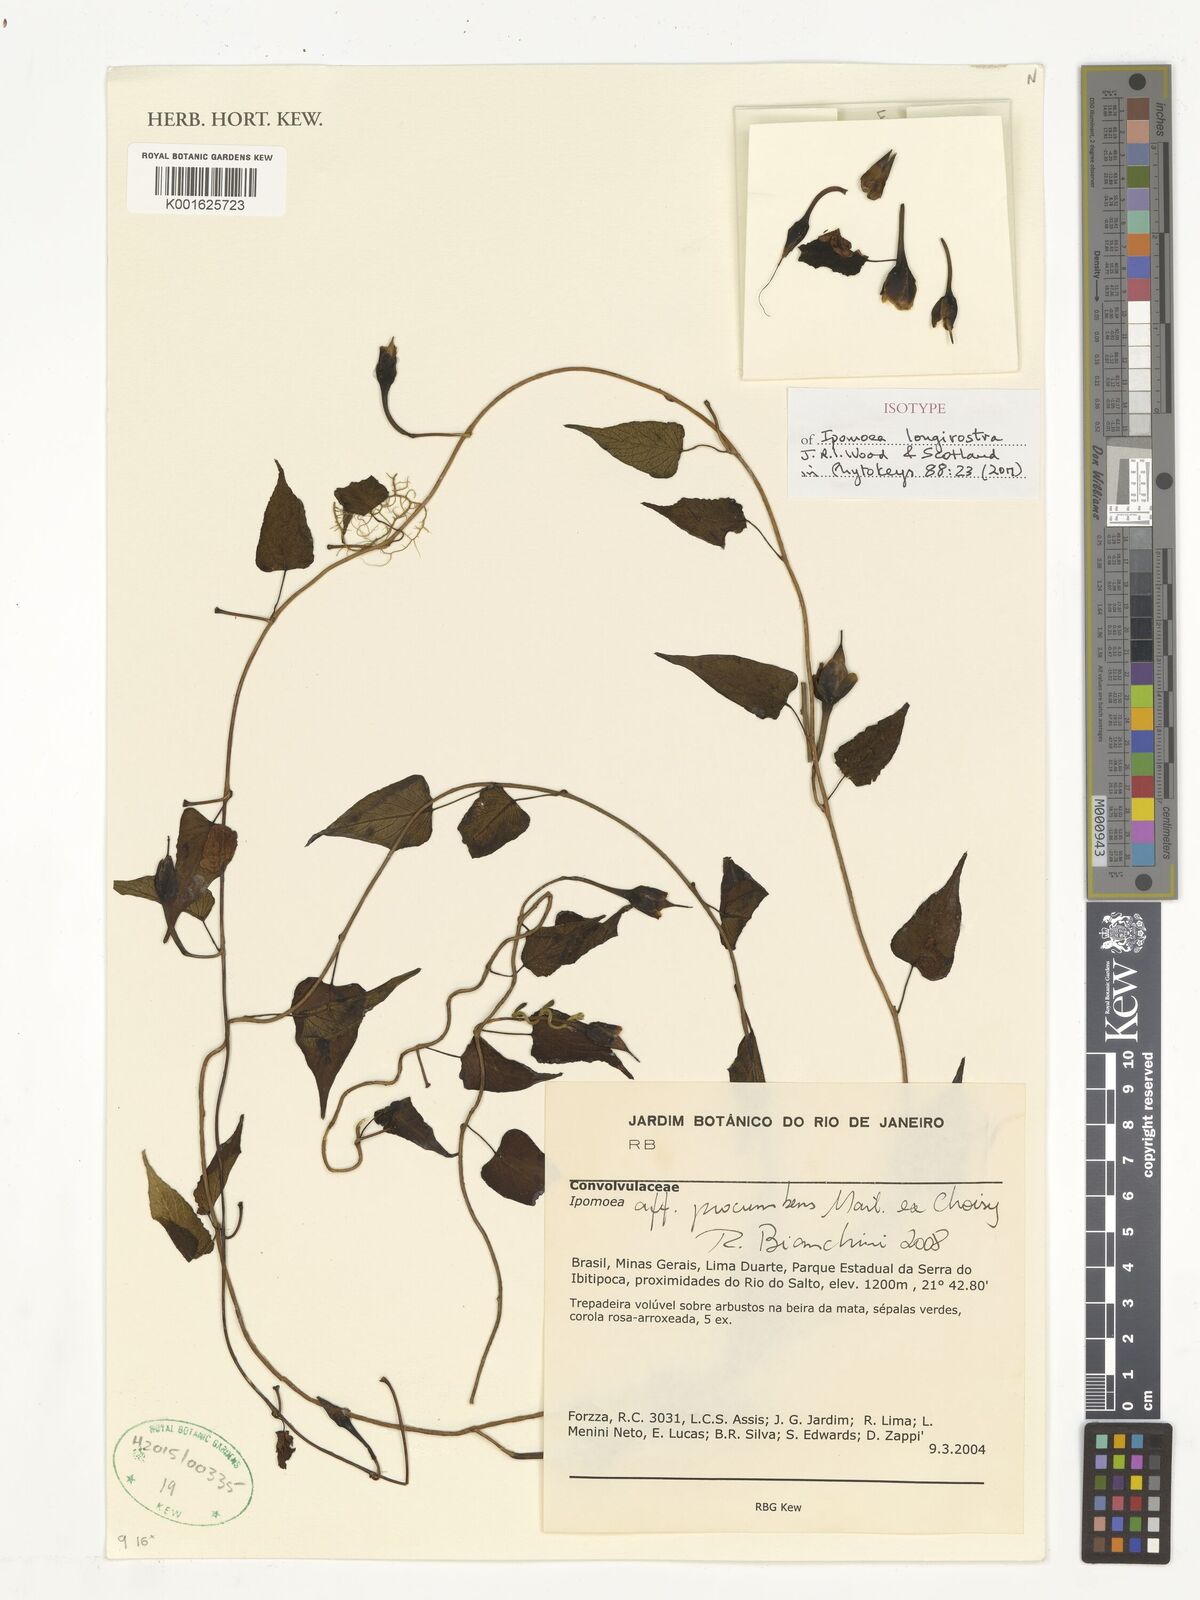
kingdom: Plantae
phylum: Tracheophyta
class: Magnoliopsida
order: Solanales
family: Convolvulaceae
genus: Ipomoea
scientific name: Ipomoea longirostra
